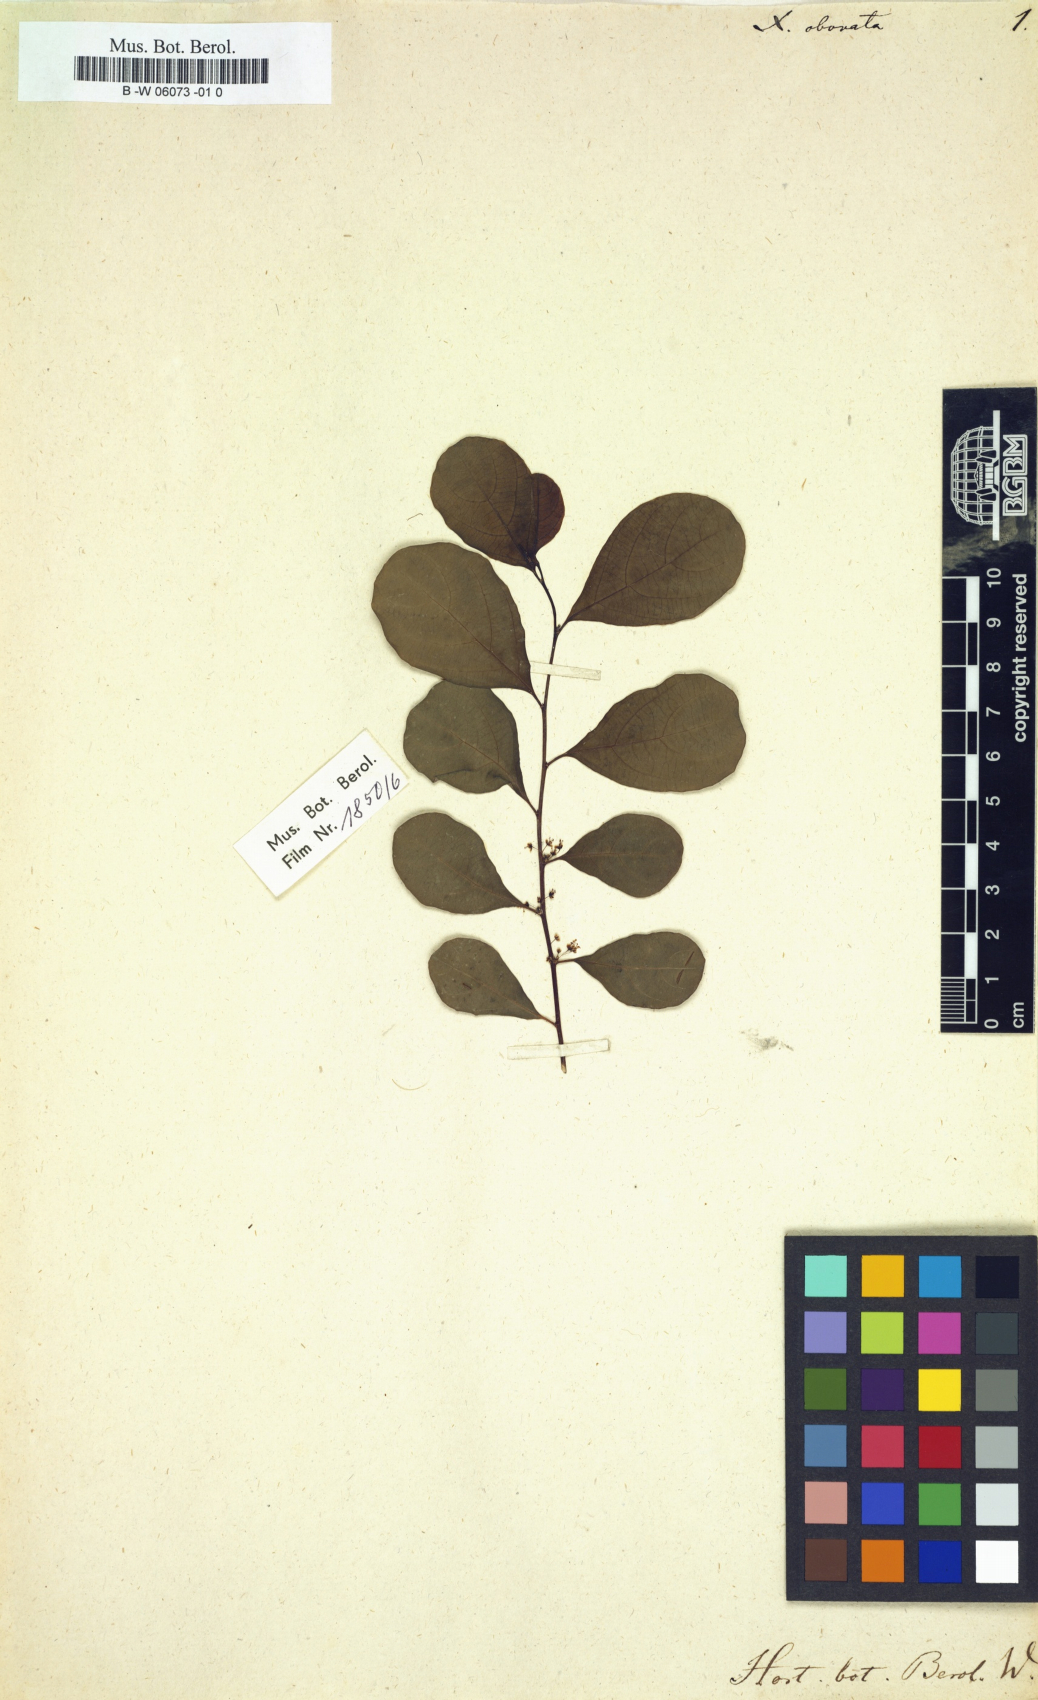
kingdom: Plantae
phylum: Tracheophyta
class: Magnoliopsida
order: Malpighiales
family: Phyllanthaceae
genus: Flueggea
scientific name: Flueggea virosa
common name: Common bushweed
